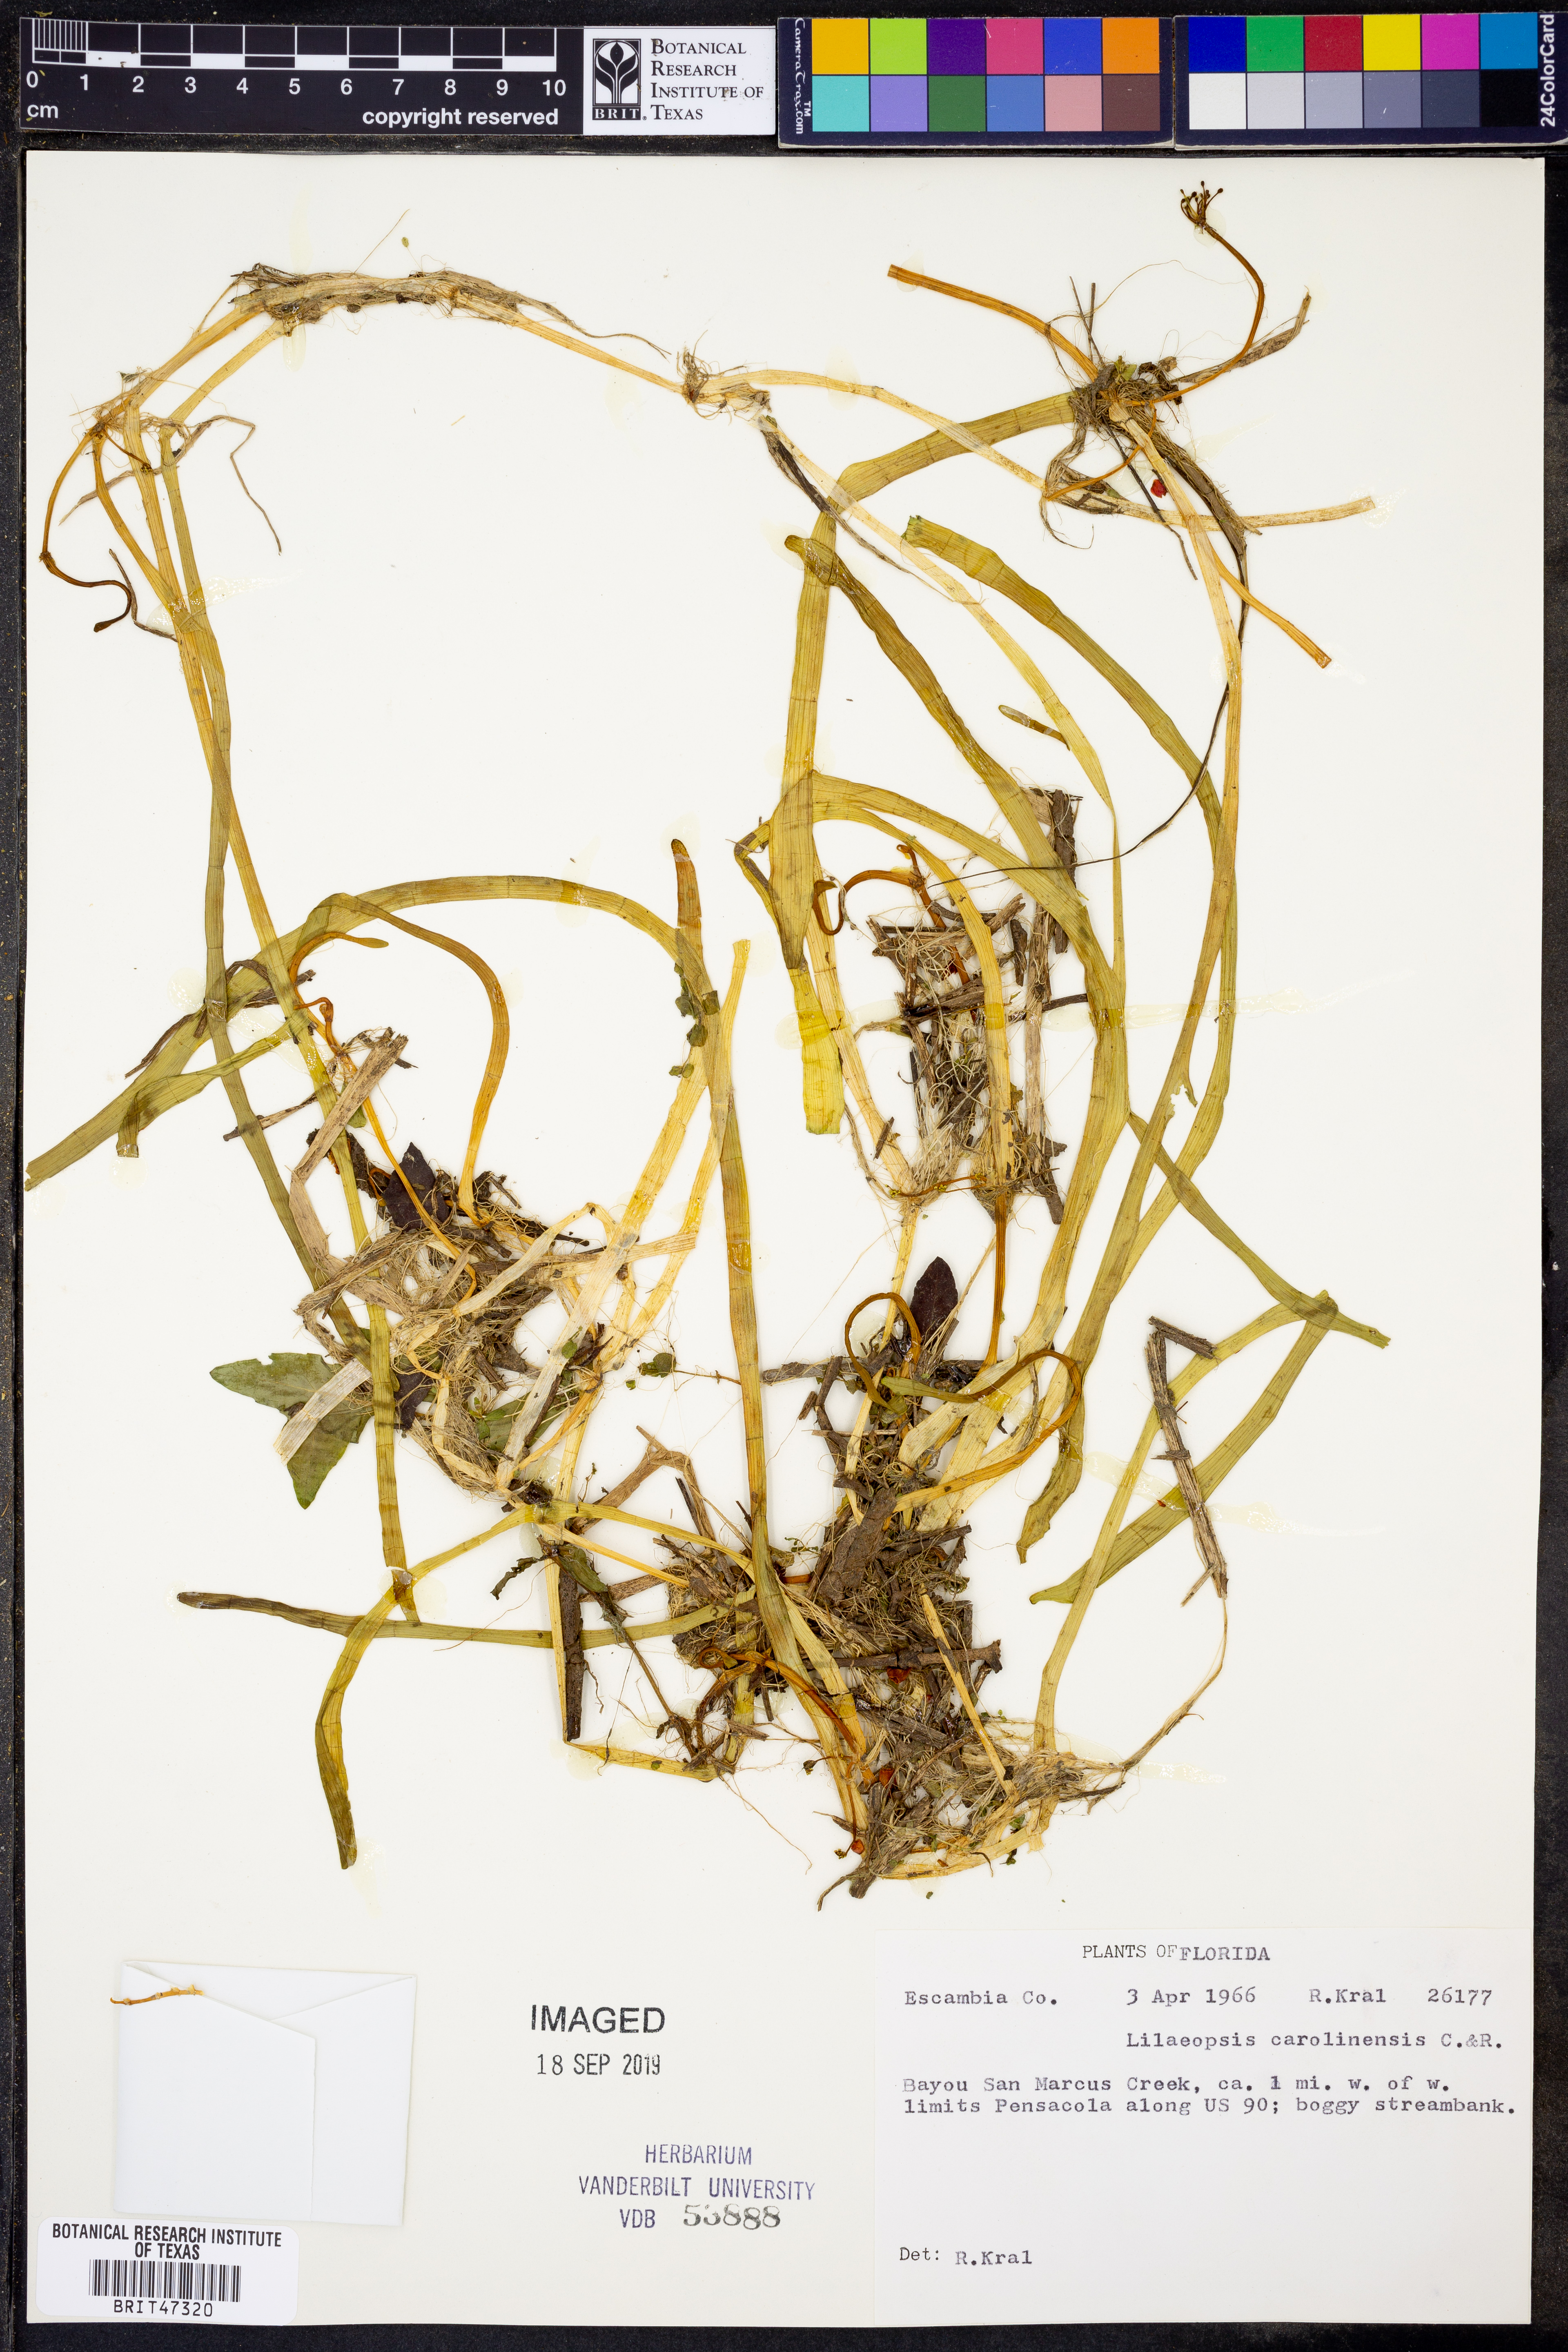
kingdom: Plantae
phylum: Tracheophyta
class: Magnoliopsida
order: Apiales
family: Apiaceae
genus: Lilaeopsis
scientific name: Lilaeopsis carolinensis
